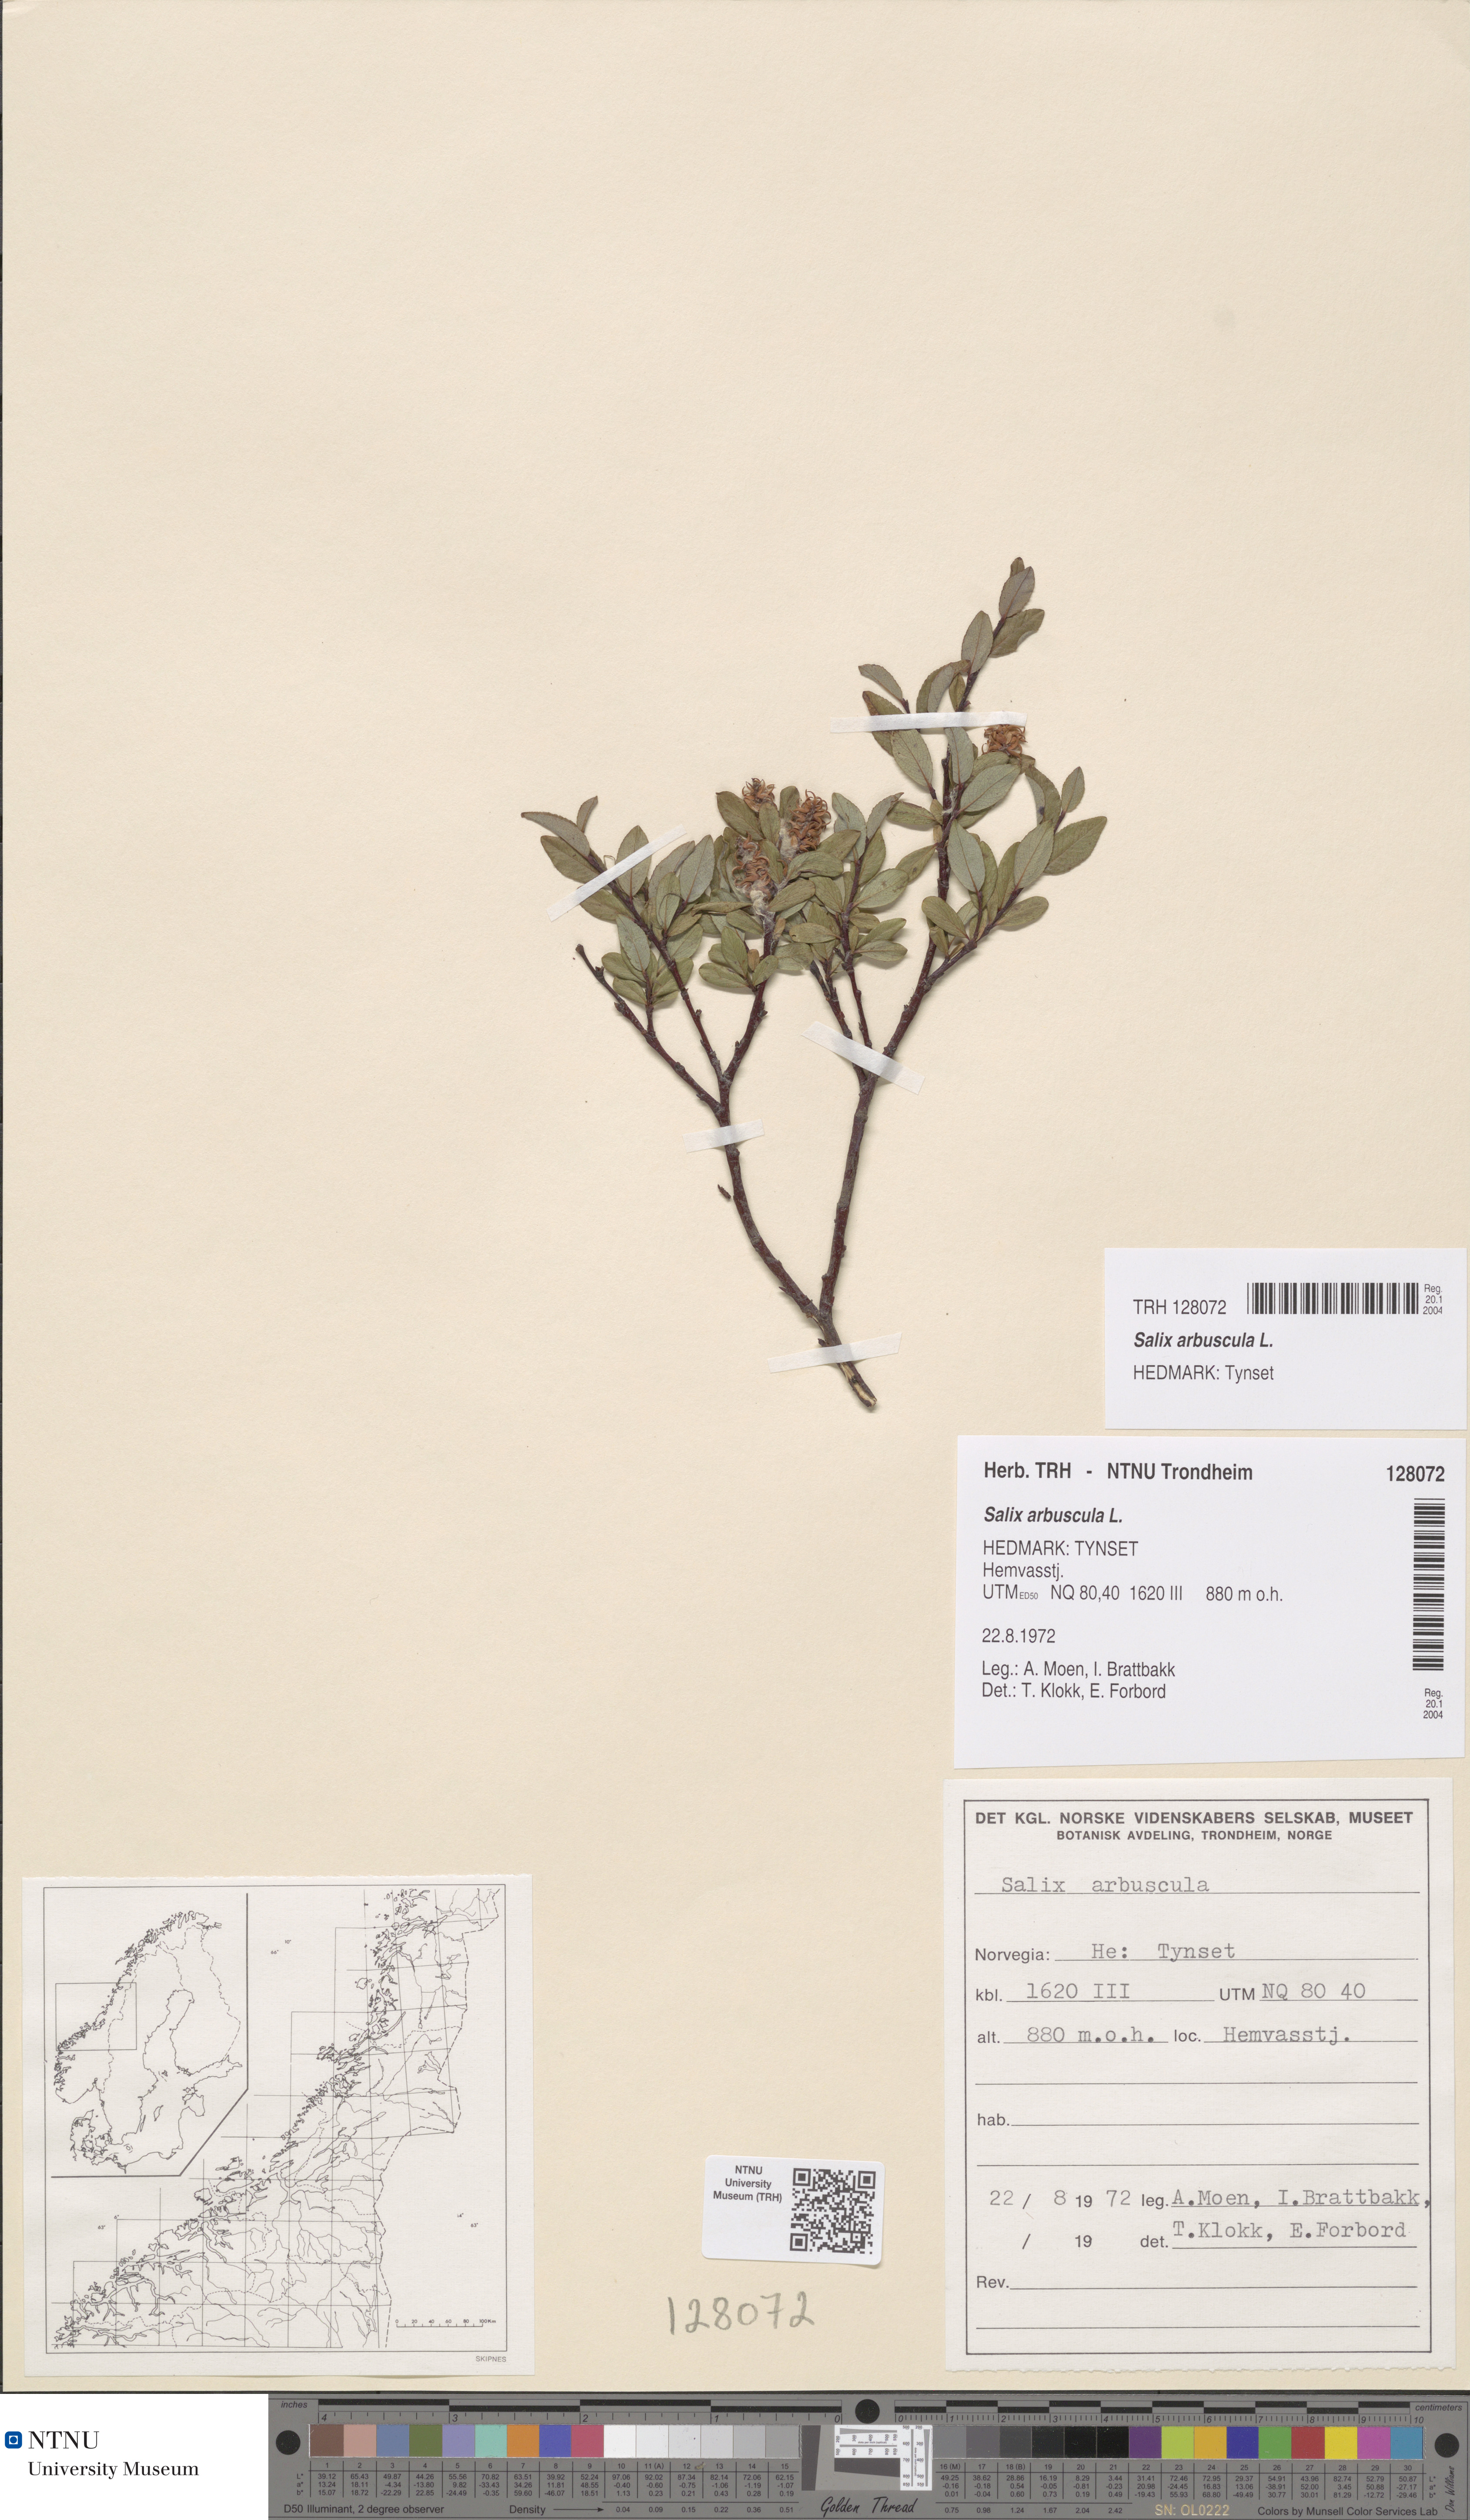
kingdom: Plantae
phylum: Tracheophyta
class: Magnoliopsida
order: Malpighiales
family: Salicaceae
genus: Salix
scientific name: Salix arbuscula
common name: Mountain willow
